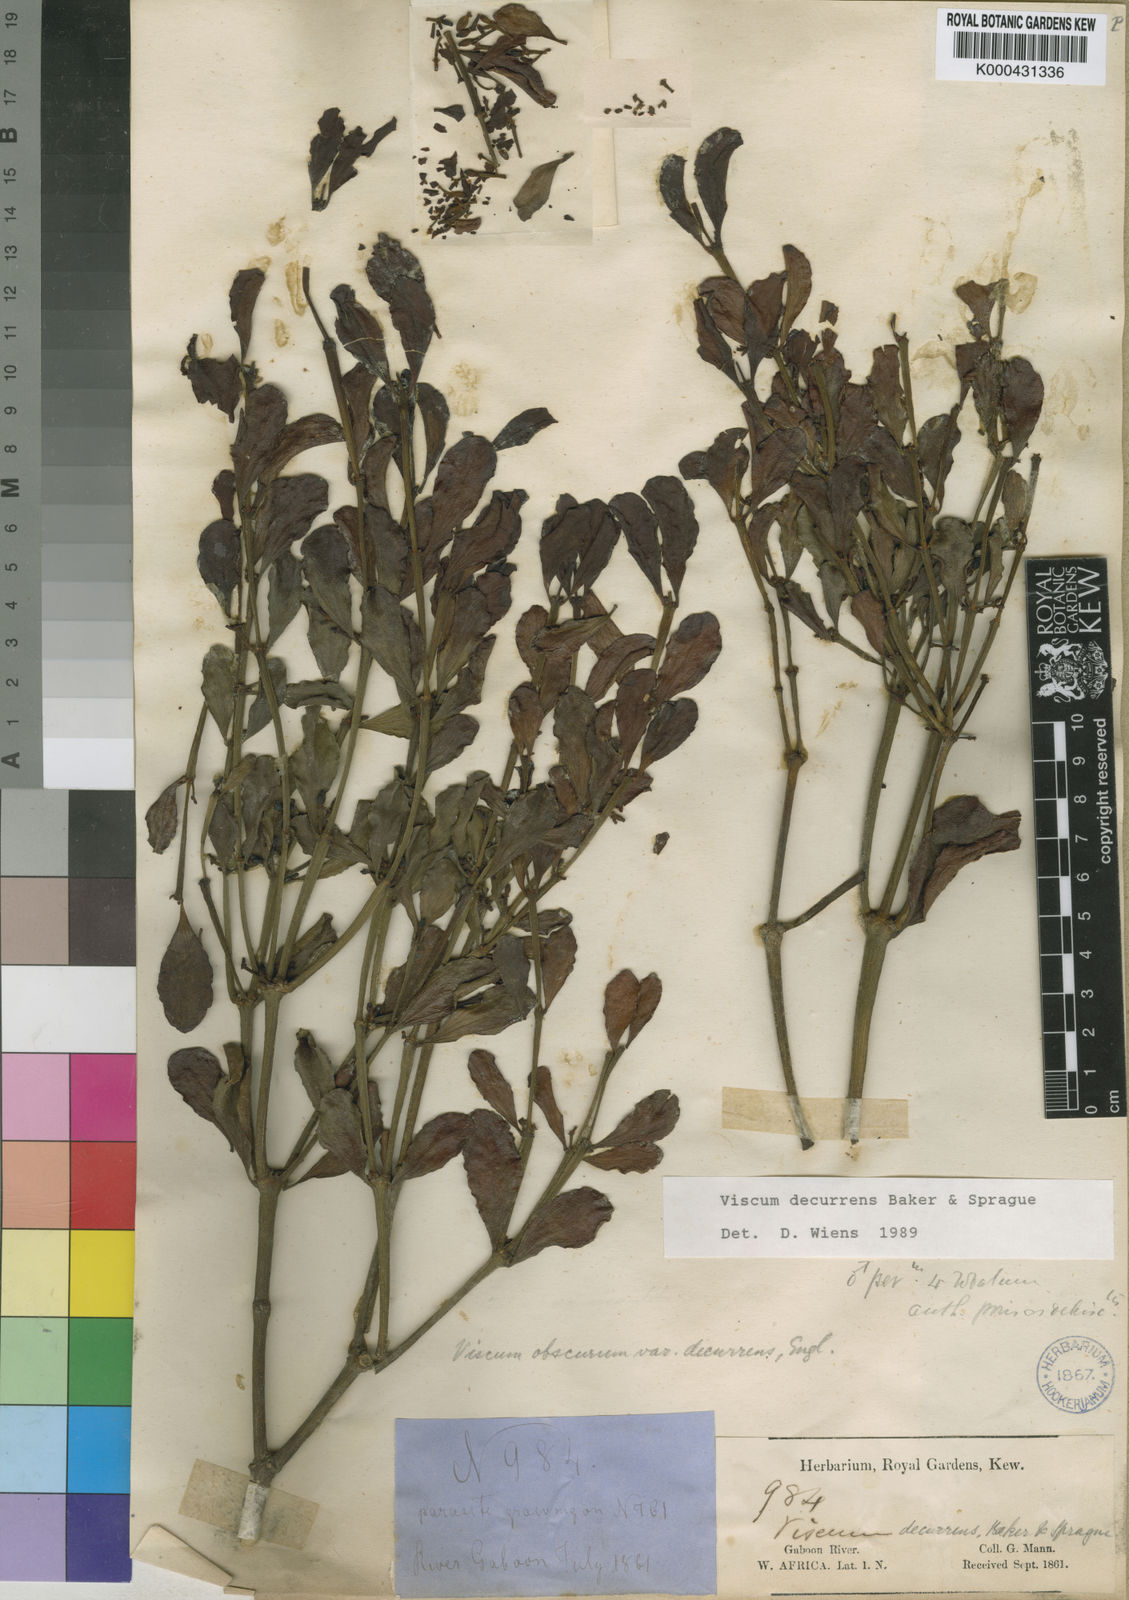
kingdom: Plantae
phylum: Tracheophyta
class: Magnoliopsida
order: Santalales
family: Viscaceae
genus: Viscum
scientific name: Viscum decurrens
